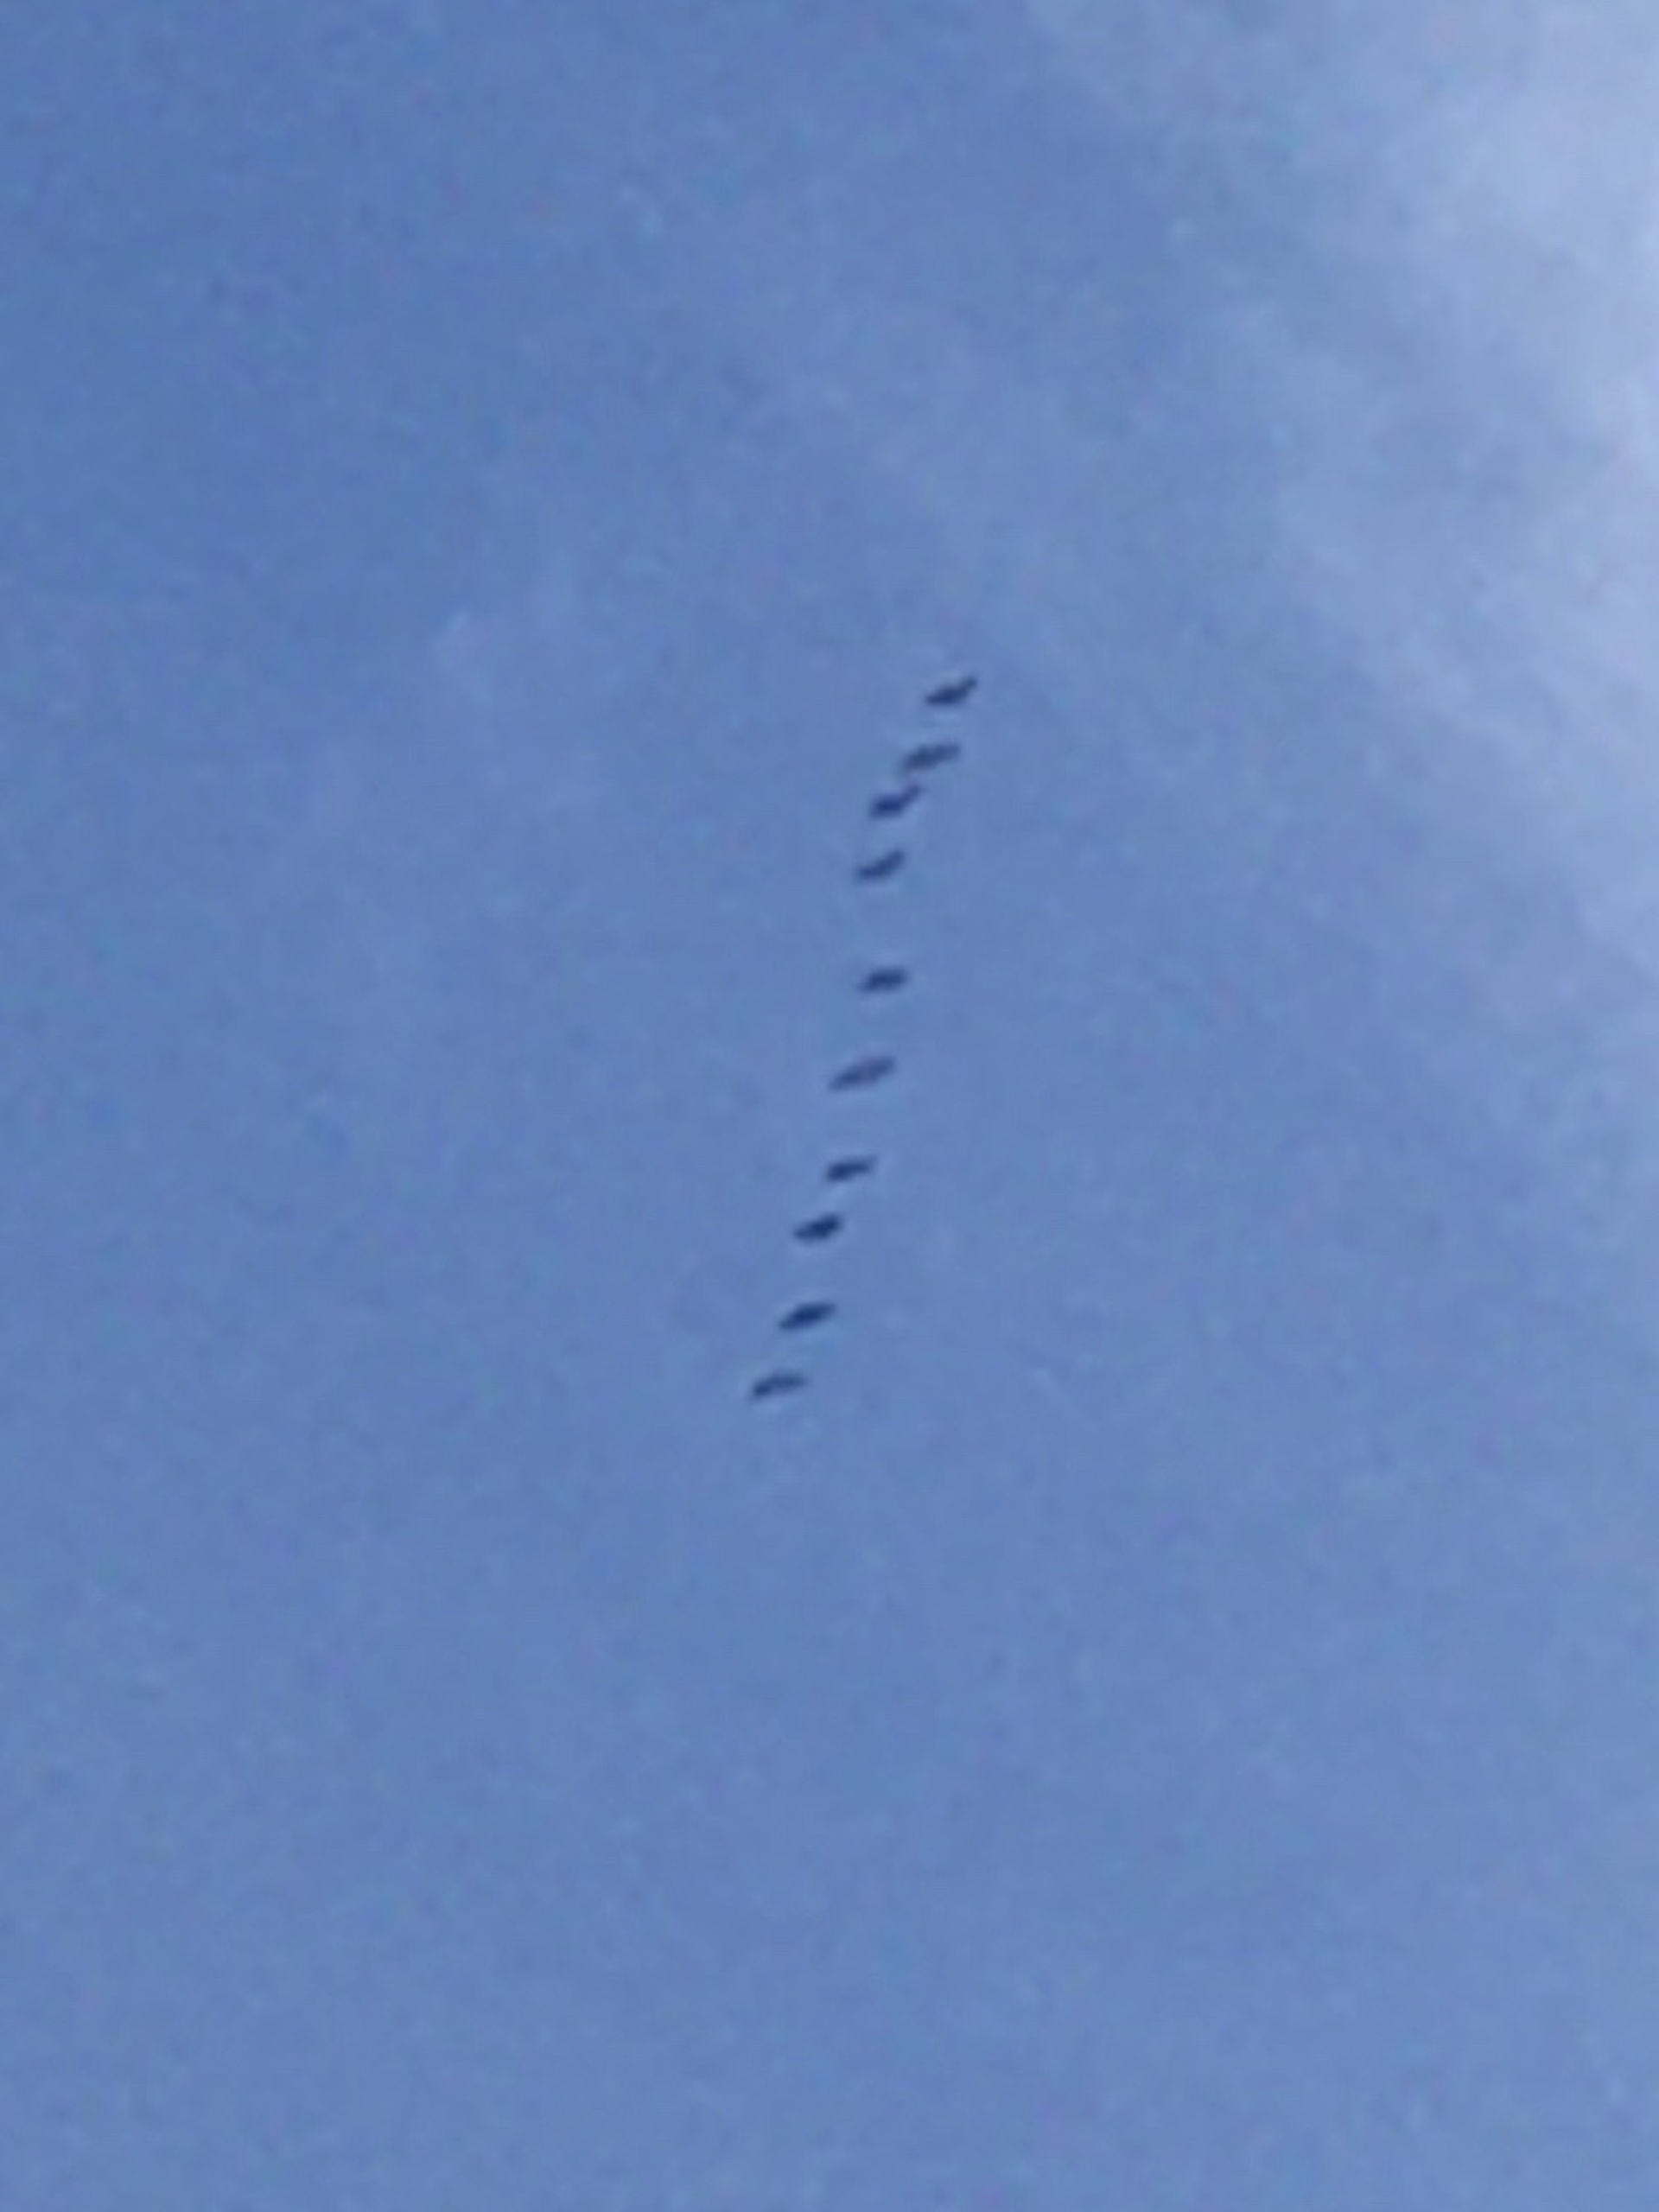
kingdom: Animalia
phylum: Chordata
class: Aves
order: Gruiformes
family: Gruidae
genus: Grus
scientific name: Grus grus
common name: Trane
